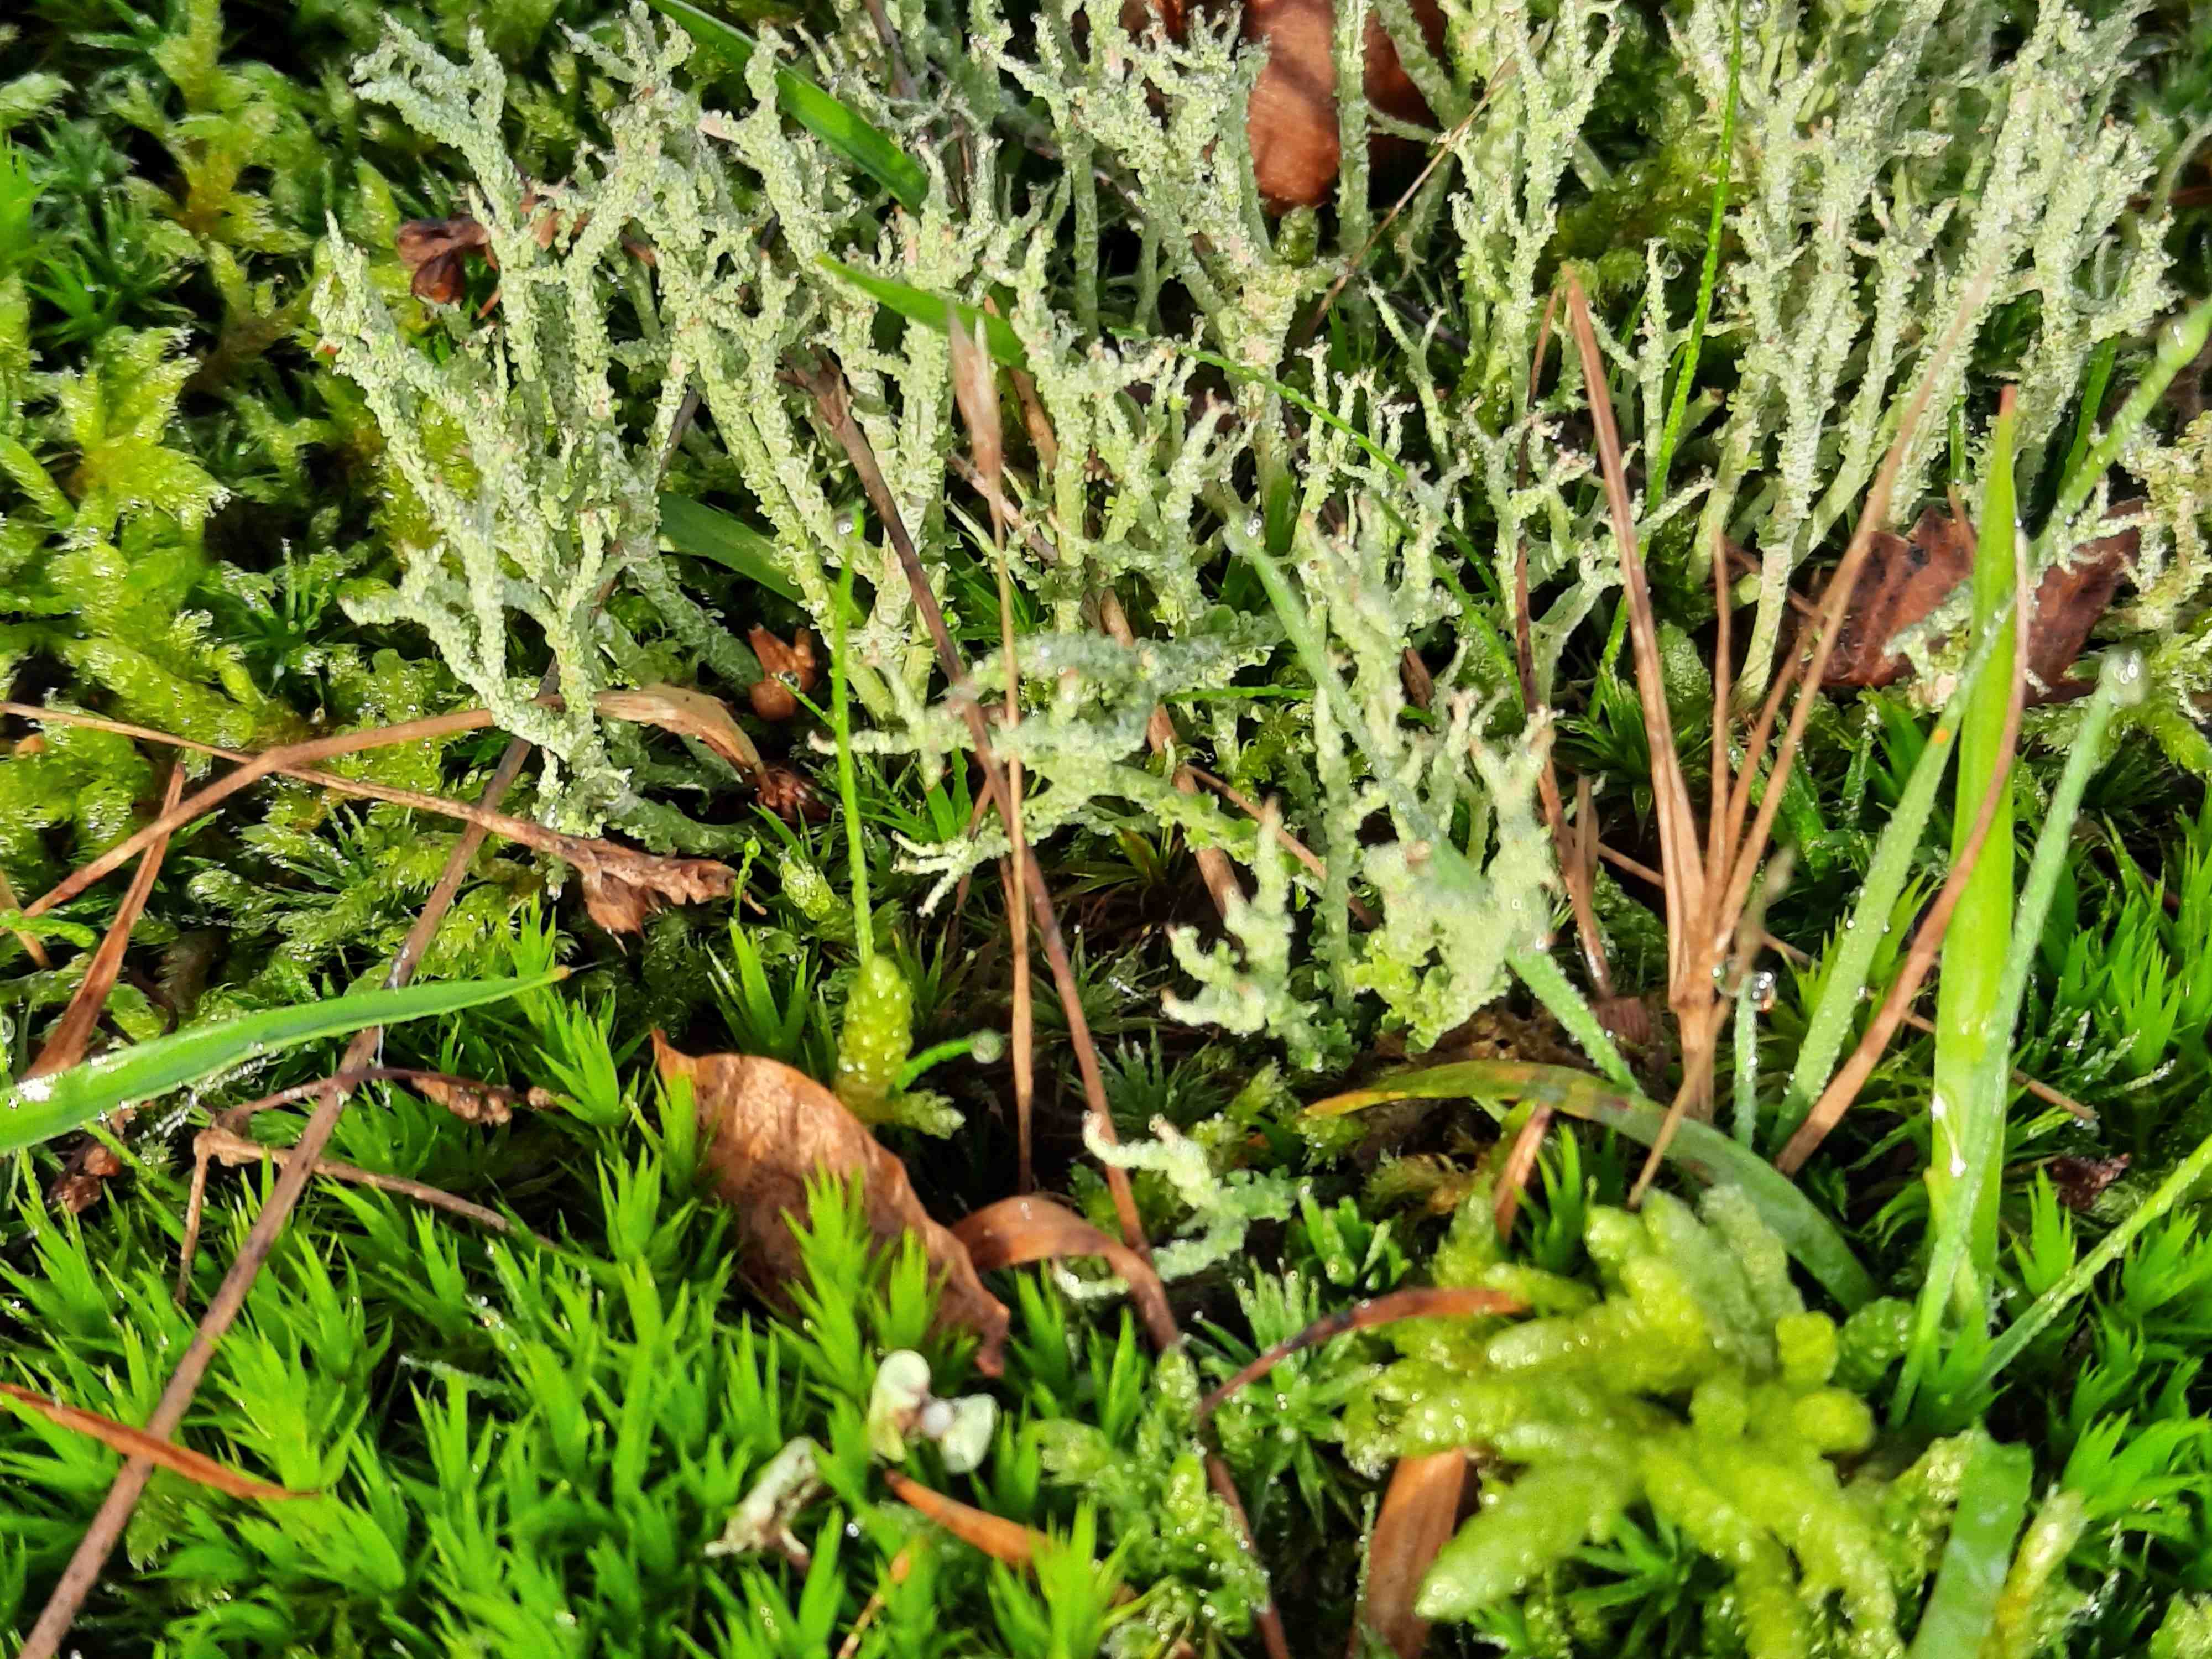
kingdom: Fungi
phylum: Ascomycota
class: Lecanoromycetes
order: Lecanorales
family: Cladoniaceae
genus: Cladonia
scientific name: Cladonia scabriuscula
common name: ru bægerlav
